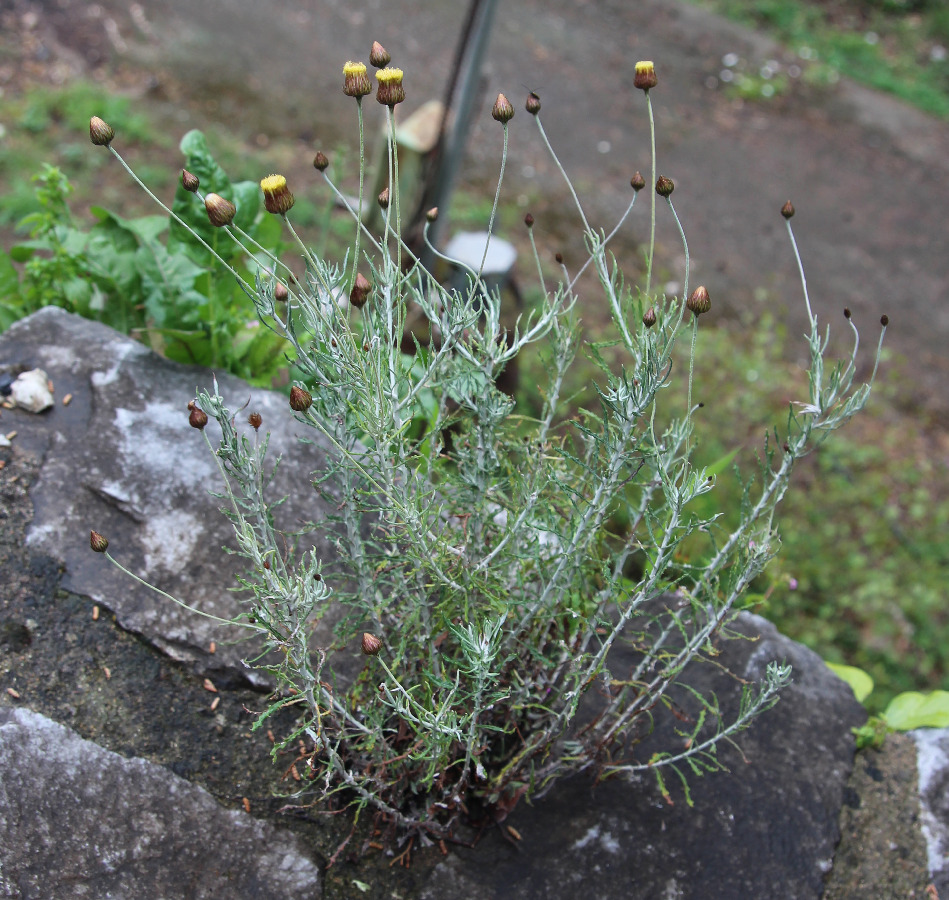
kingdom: Plantae
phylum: Tracheophyta
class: Magnoliopsida
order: Asterales
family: Asteraceae
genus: Phagnalon
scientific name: Phagnalon rupestre
